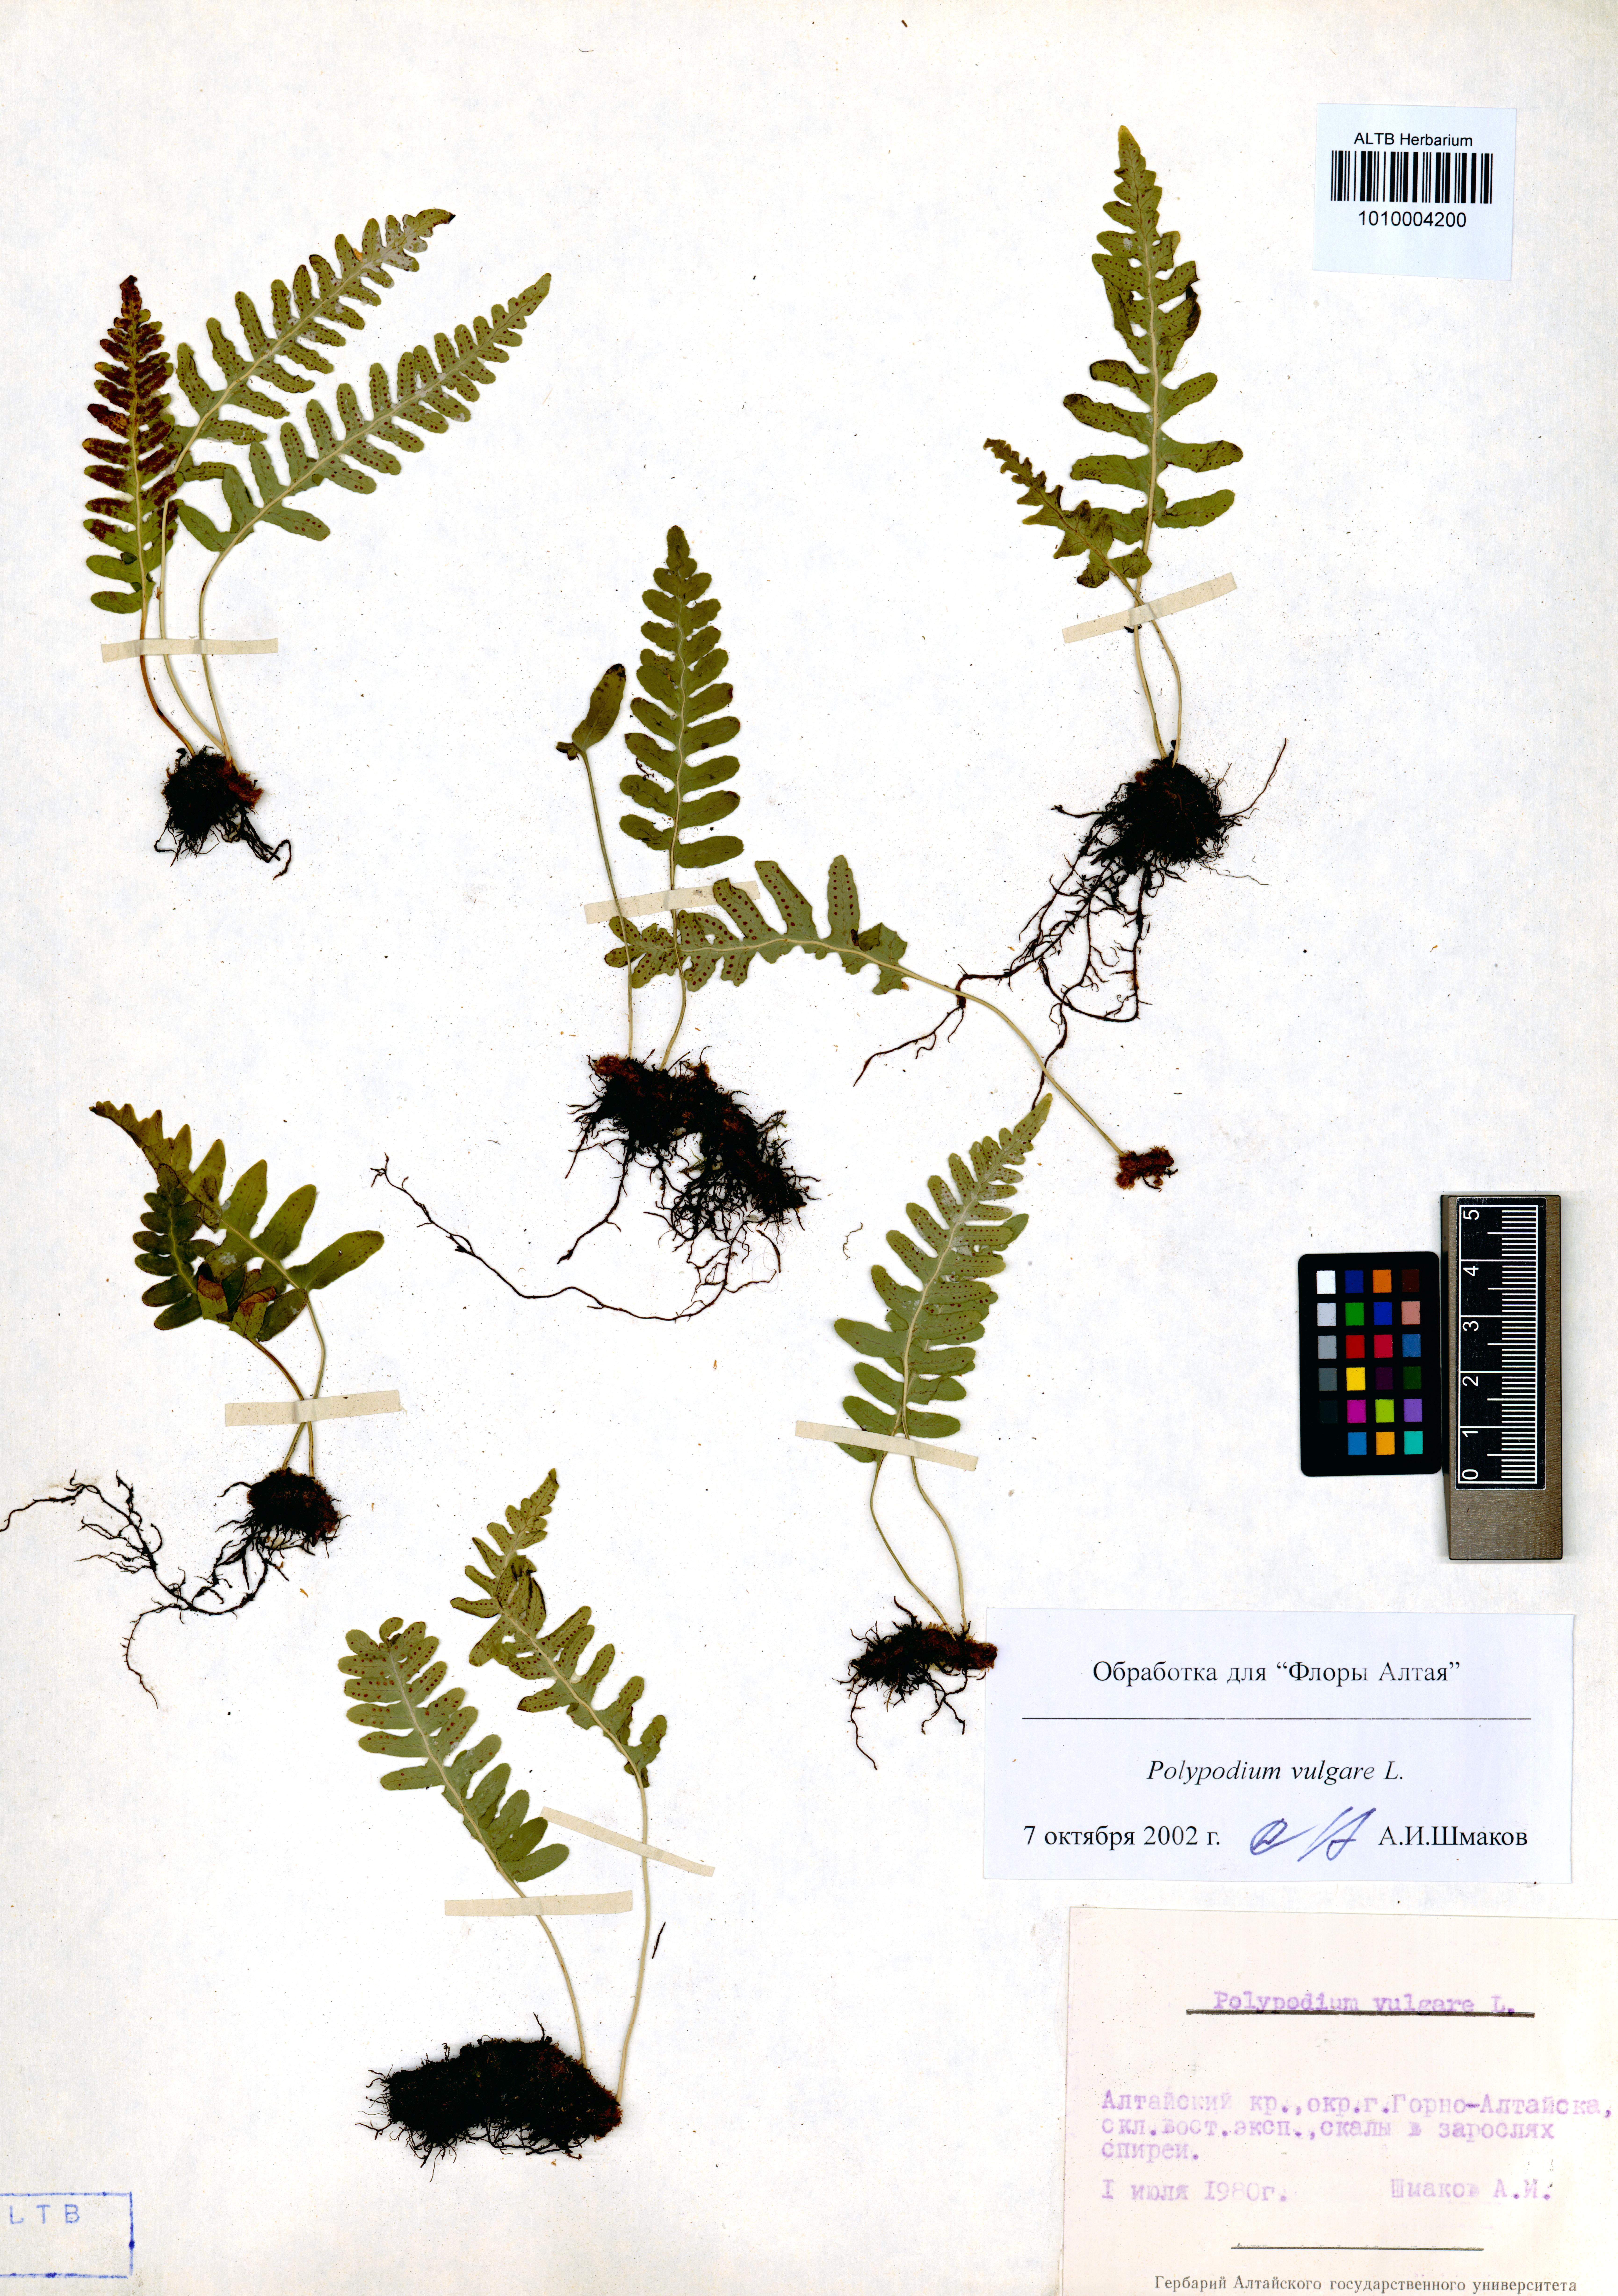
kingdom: Plantae
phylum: Tracheophyta
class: Polypodiopsida
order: Polypodiales
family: Polypodiaceae
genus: Polypodium
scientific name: Polypodium vulgare
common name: Common polypody
